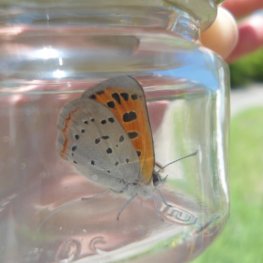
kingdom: Animalia
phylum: Arthropoda
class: Insecta
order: Lepidoptera
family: Lycaenidae
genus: Lycaena
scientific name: Lycaena phlaeas
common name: American Copper
